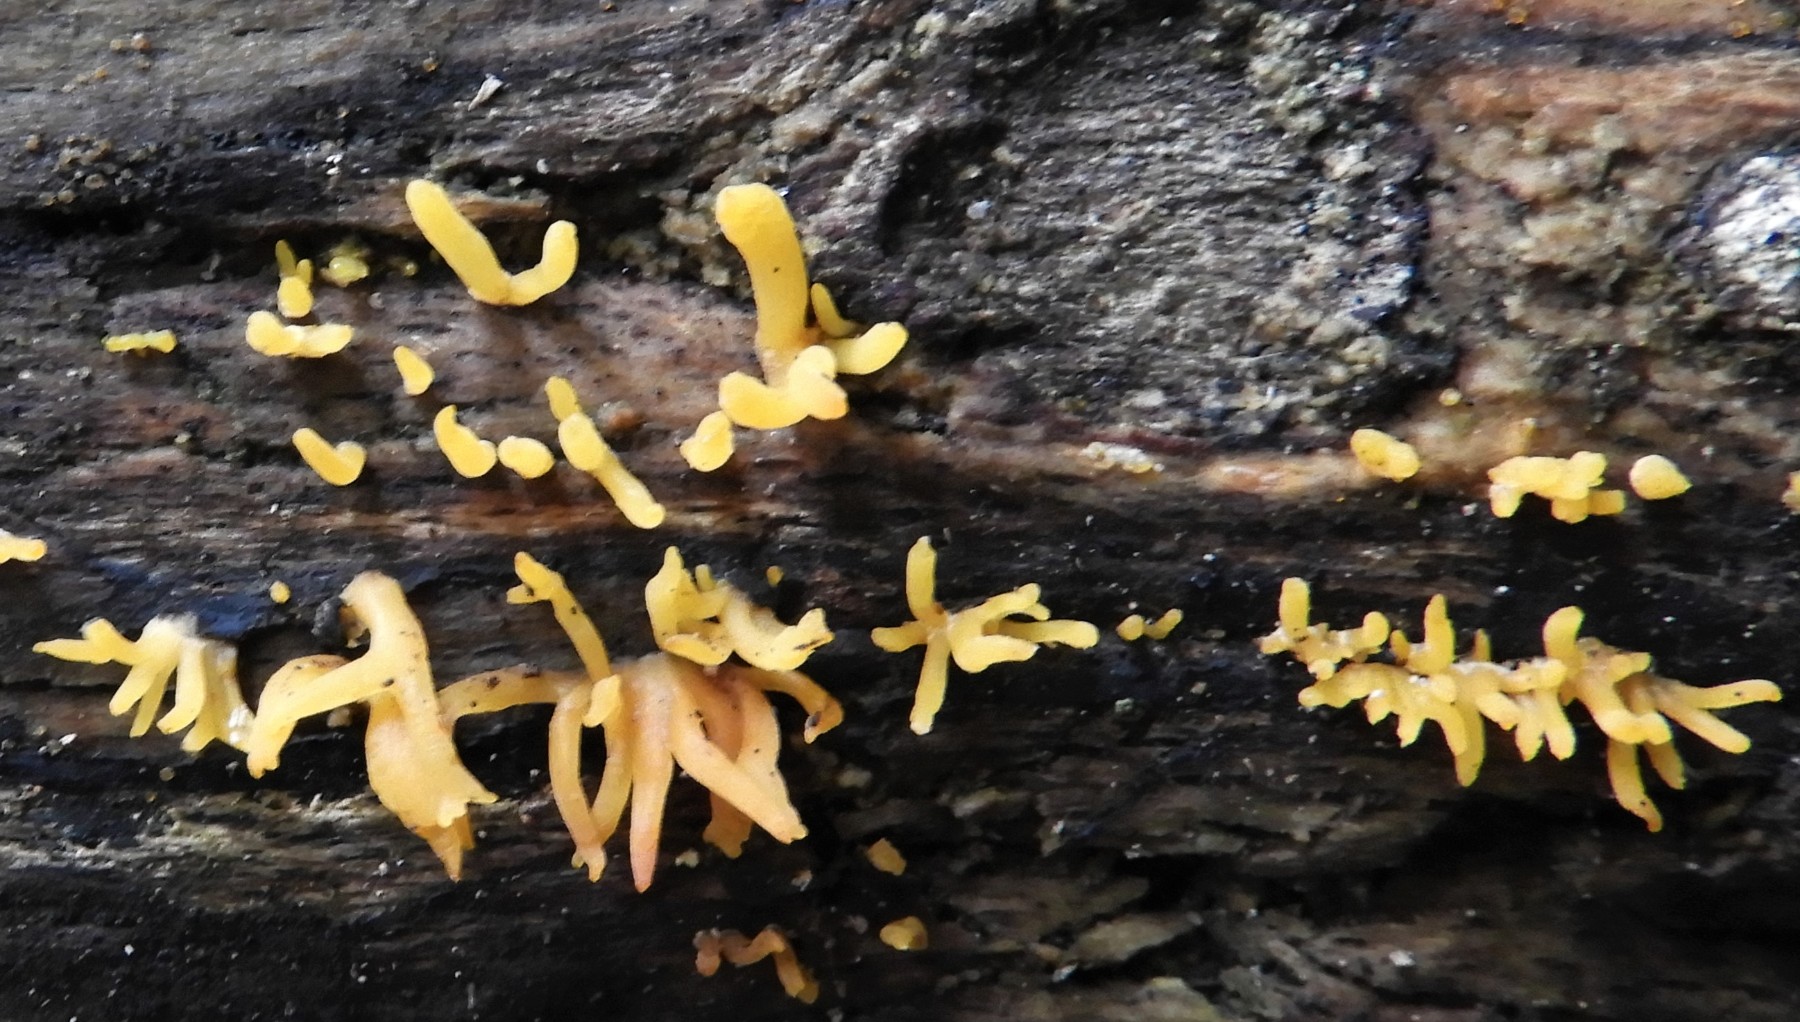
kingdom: Fungi
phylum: Basidiomycota
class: Dacrymycetes
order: Dacrymycetales
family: Dacrymycetaceae
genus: Calocera
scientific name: Calocera cornea
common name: liden guldgaffel
